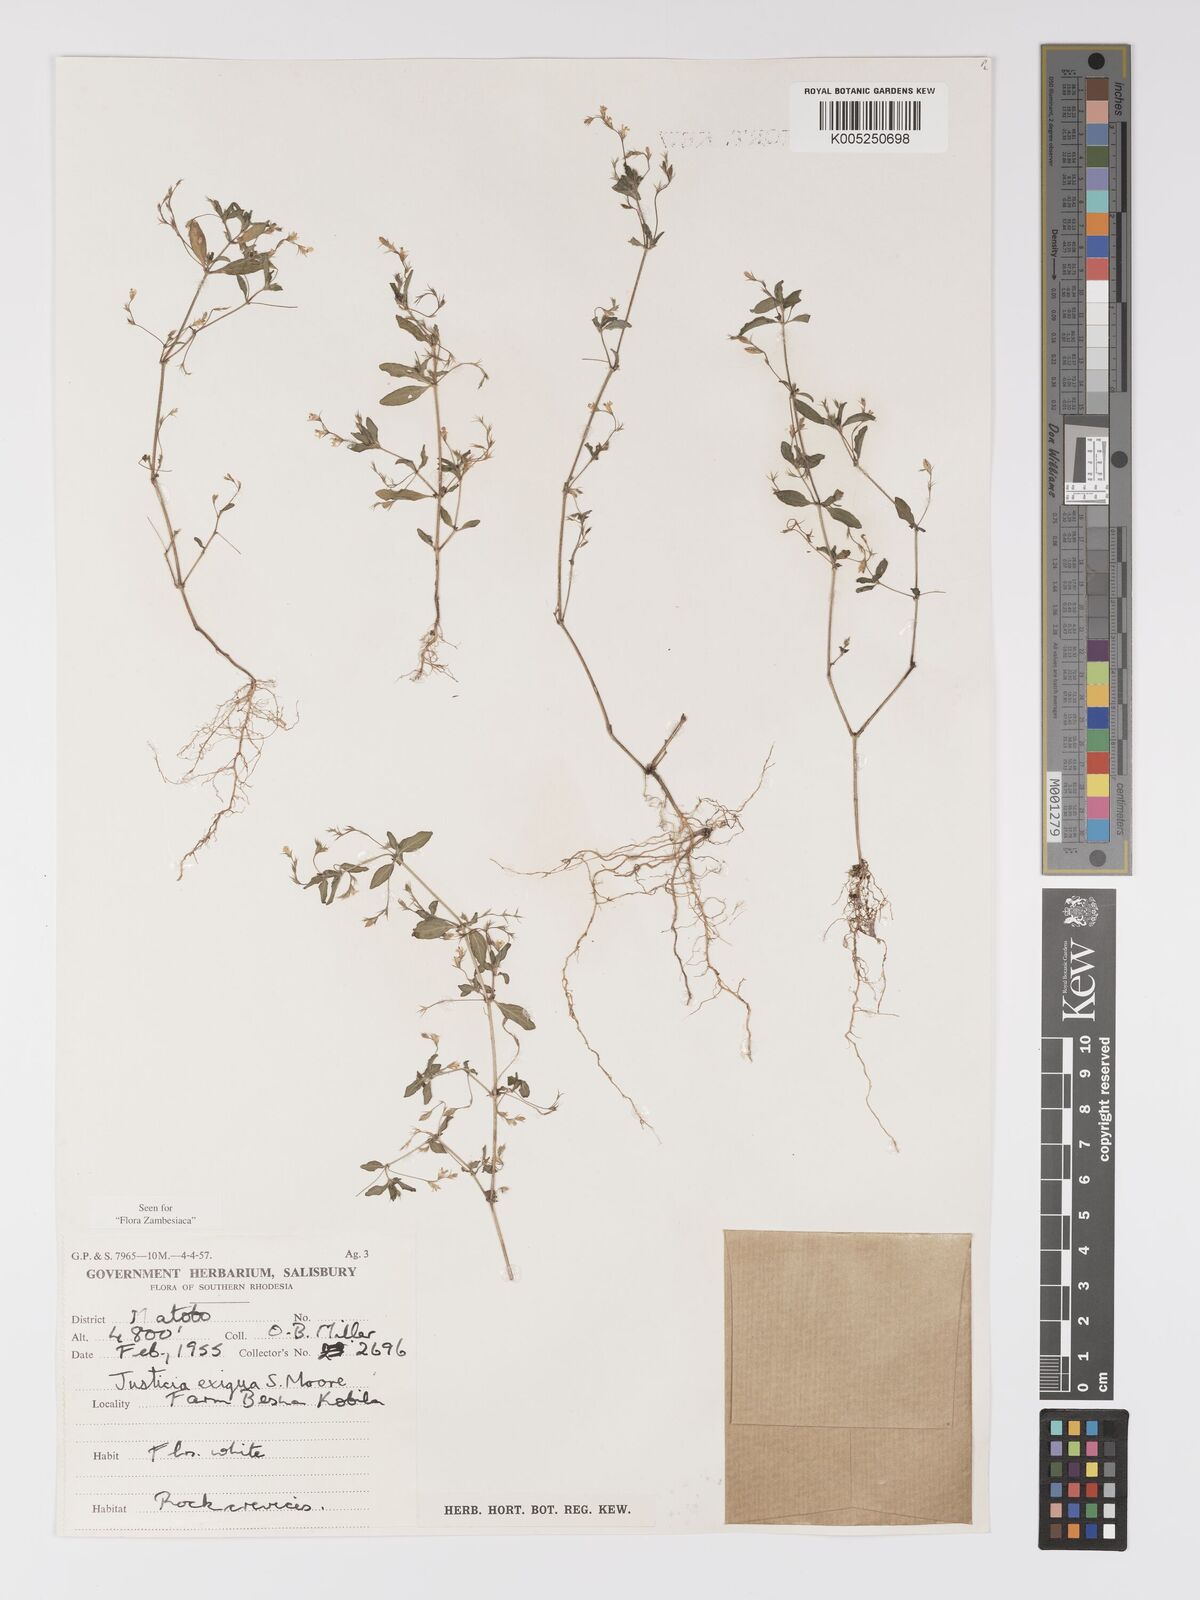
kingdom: Plantae
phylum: Tracheophyta
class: Magnoliopsida
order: Lamiales
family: Acanthaceae
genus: Justicia
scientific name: Justicia exigua
